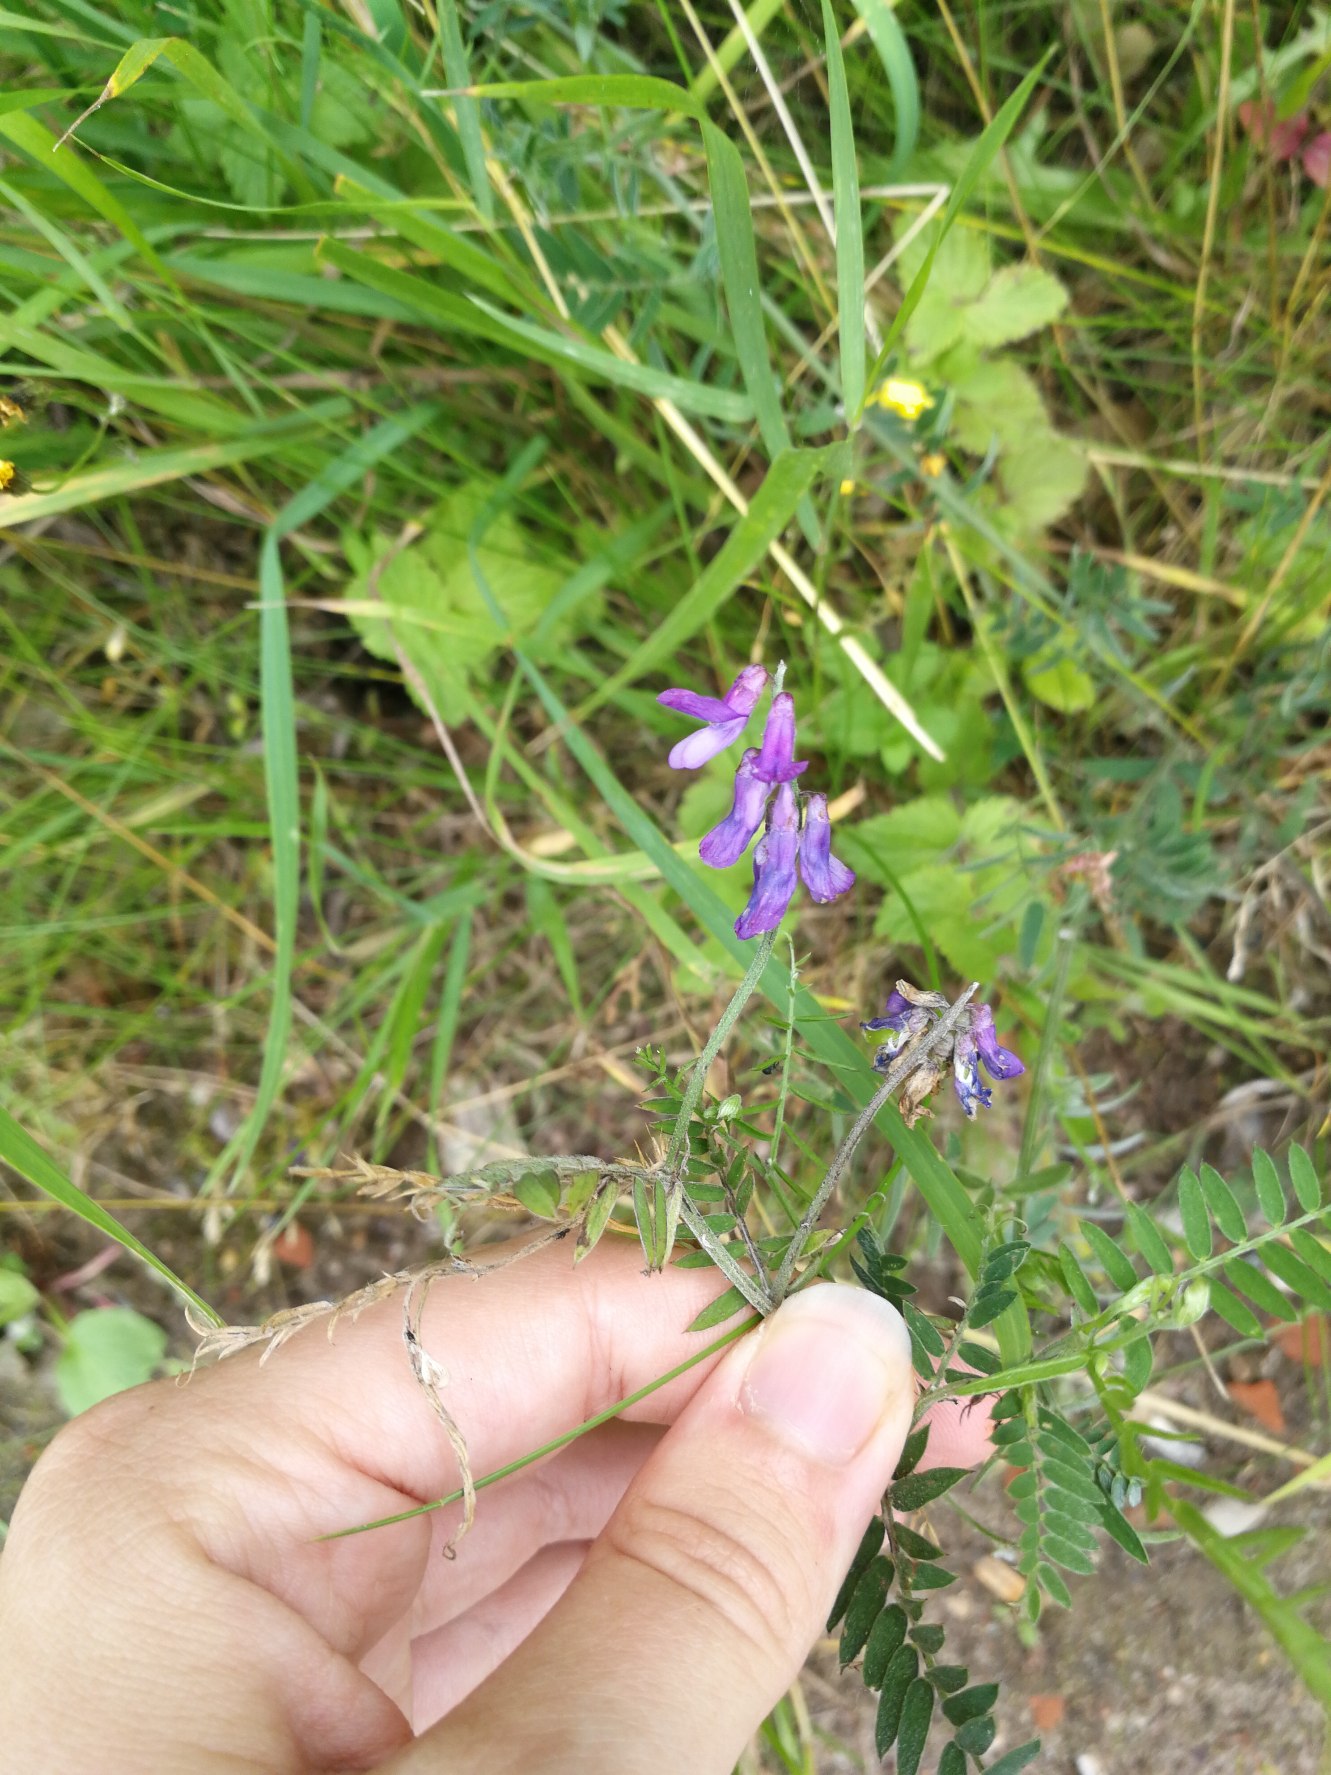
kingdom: Plantae
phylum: Tracheophyta
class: Magnoliopsida
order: Fabales
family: Fabaceae
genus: Vicia
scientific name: Vicia cracca
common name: Muse-vikke
